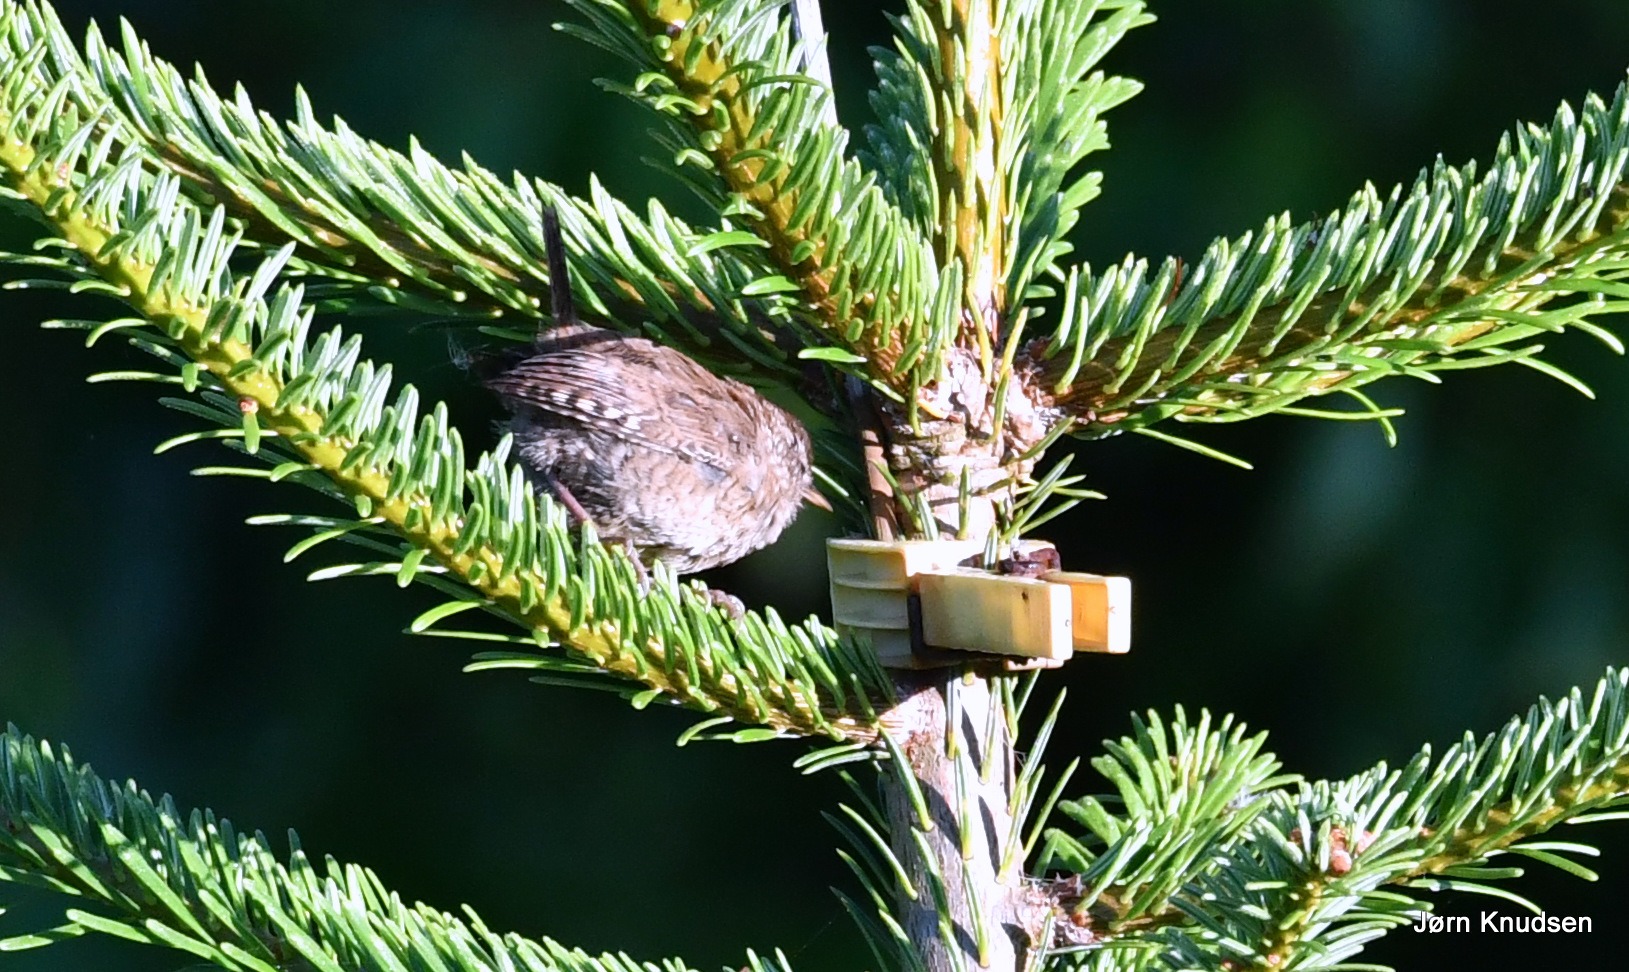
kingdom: Animalia
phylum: Chordata
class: Aves
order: Passeriformes
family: Troglodytidae
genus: Troglodytes
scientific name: Troglodytes troglodytes
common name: Gærdesmutte
